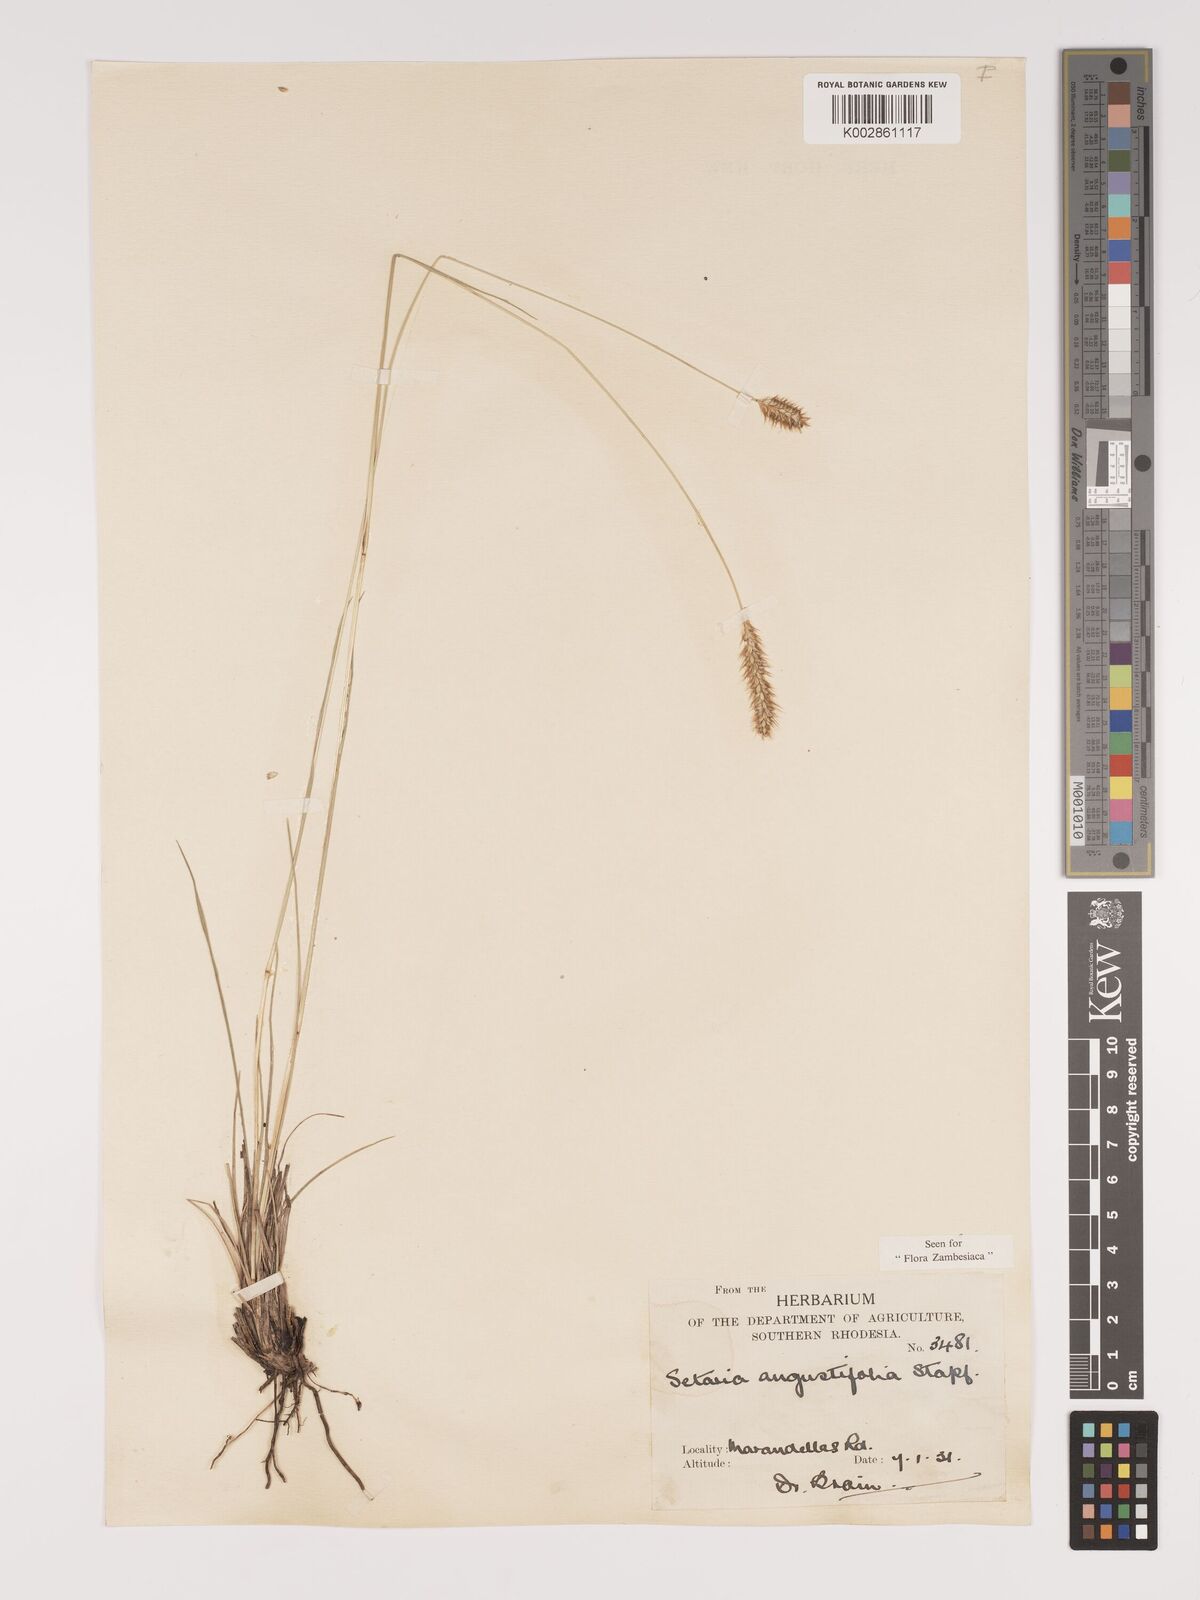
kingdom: Plantae
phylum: Tracheophyta
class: Liliopsida
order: Poales
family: Poaceae
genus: Setaria
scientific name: Setaria sphacelata
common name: African bristlegrass
